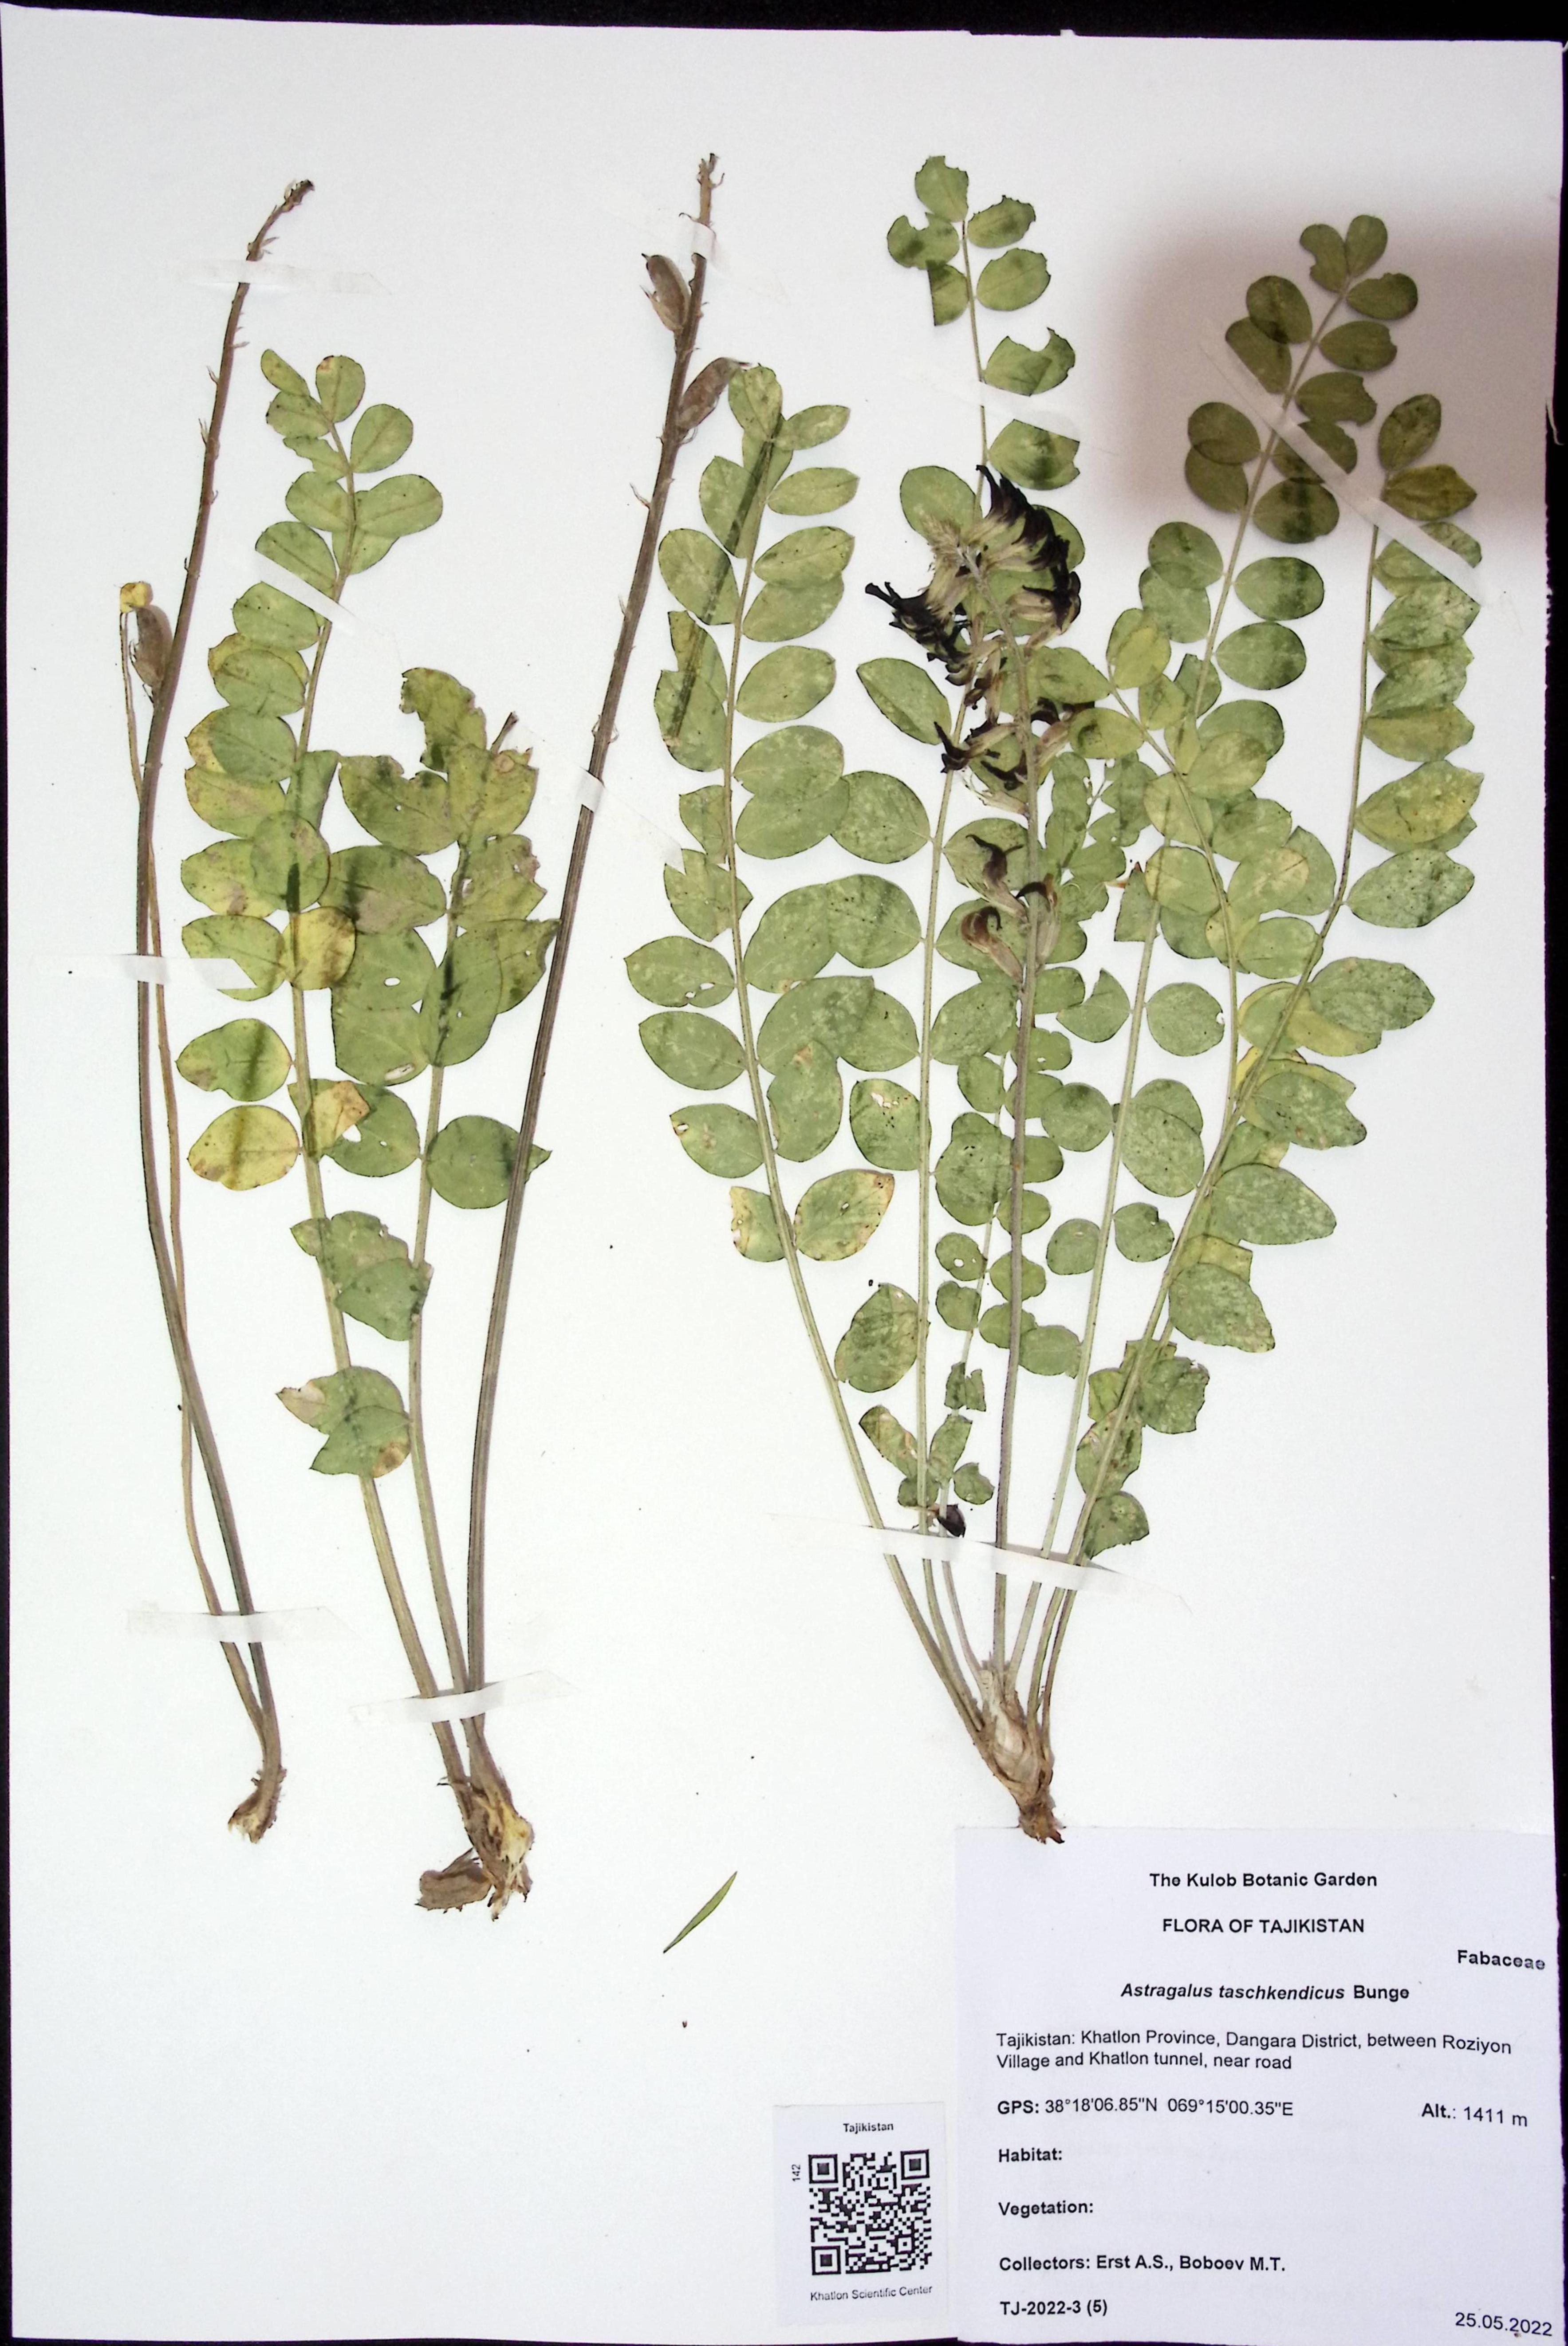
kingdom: Plantae
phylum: Tracheophyta
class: Magnoliopsida
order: Fabales
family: Fabaceae
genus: Astragalus
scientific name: Astragalus taschkendicus
